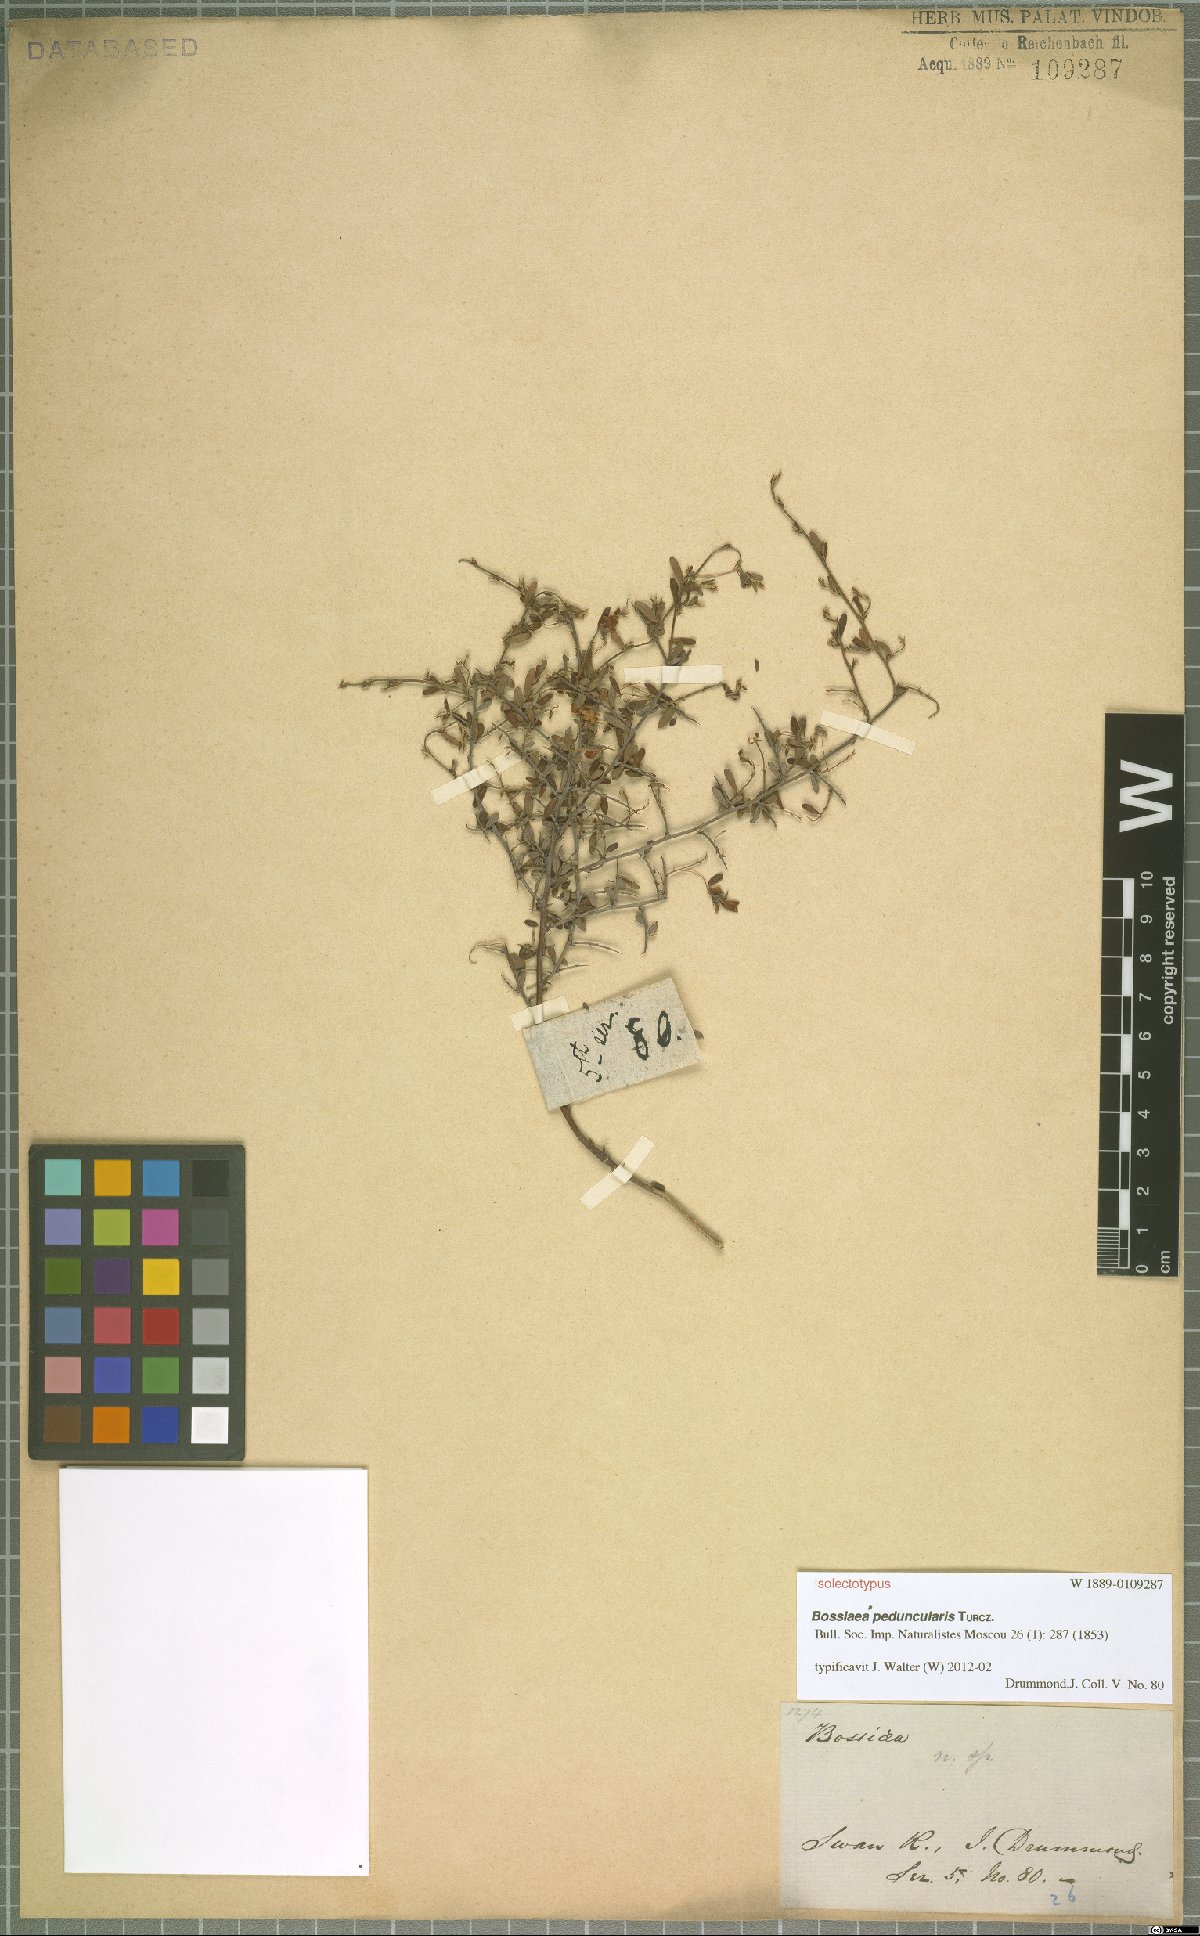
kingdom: Plantae
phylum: Tracheophyta
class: Magnoliopsida
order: Fabales
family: Fabaceae
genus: Bossiaea
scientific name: Bossiaea peduncularis
